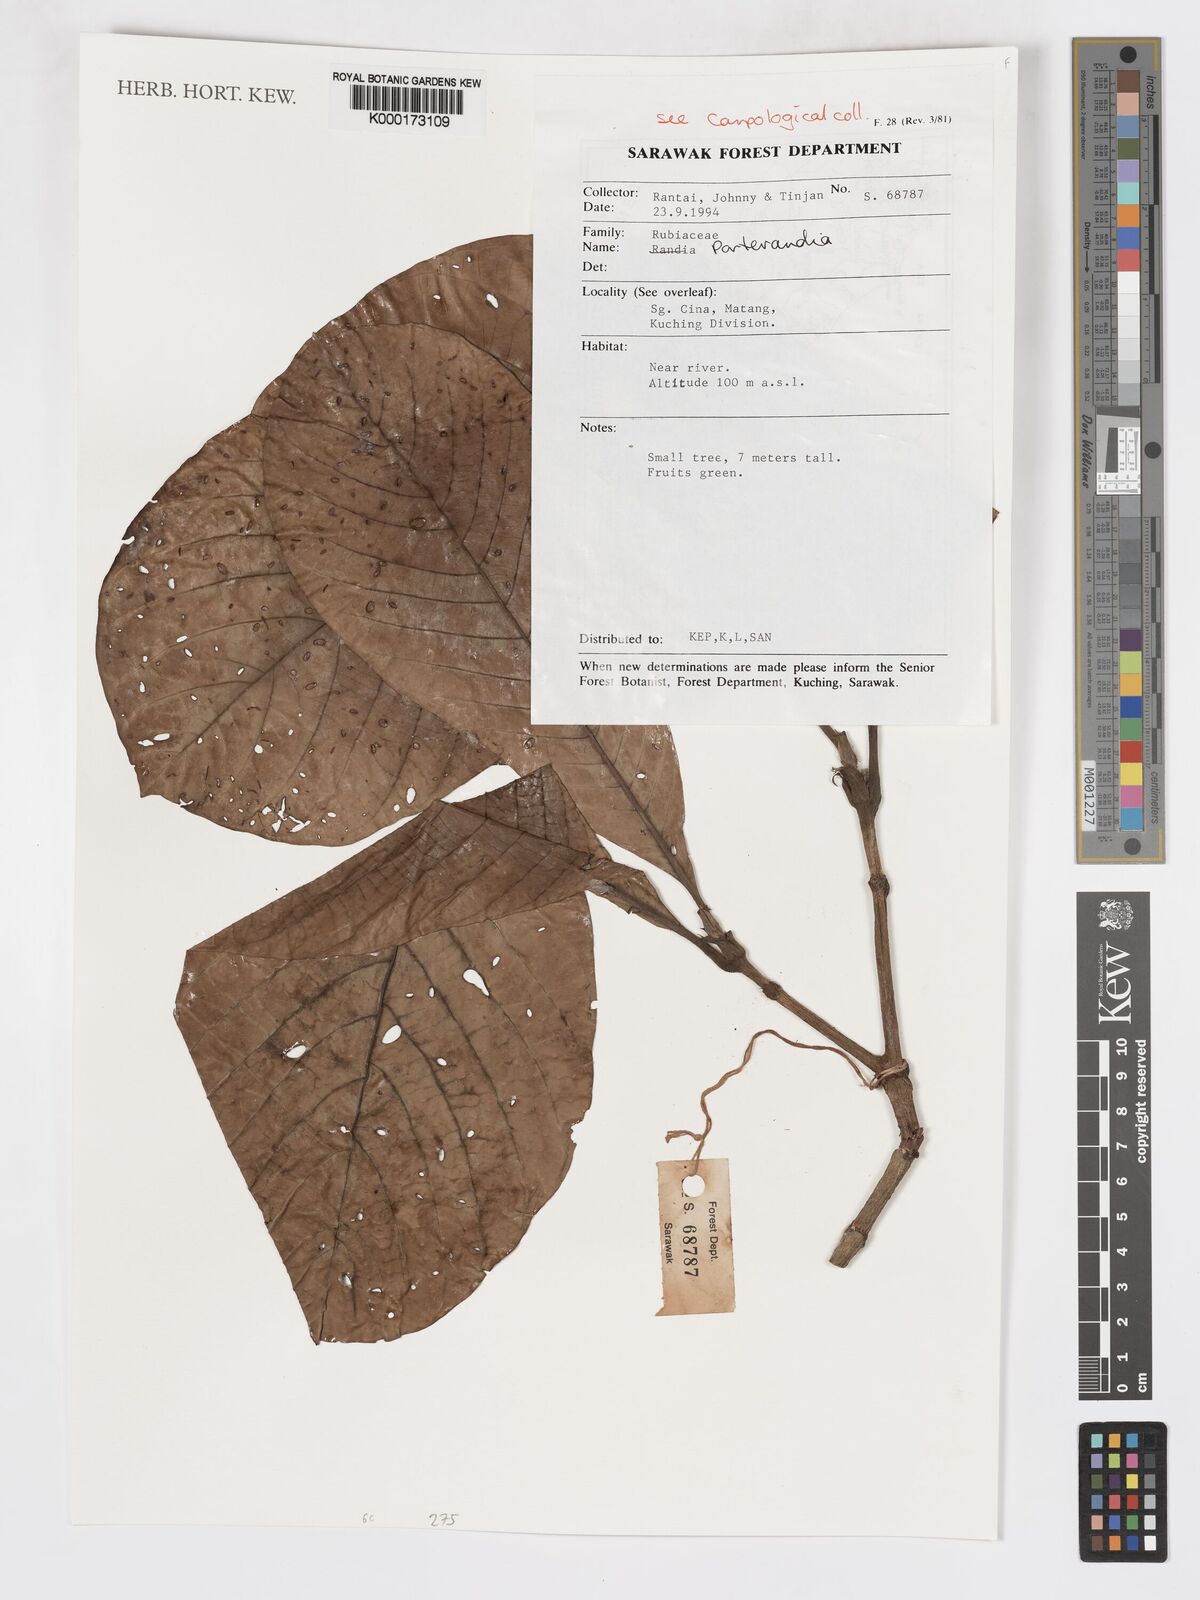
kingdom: Plantae
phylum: Tracheophyta
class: Magnoliopsida
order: Gentianales
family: Rubiaceae
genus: Porterandia
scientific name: Porterandia
